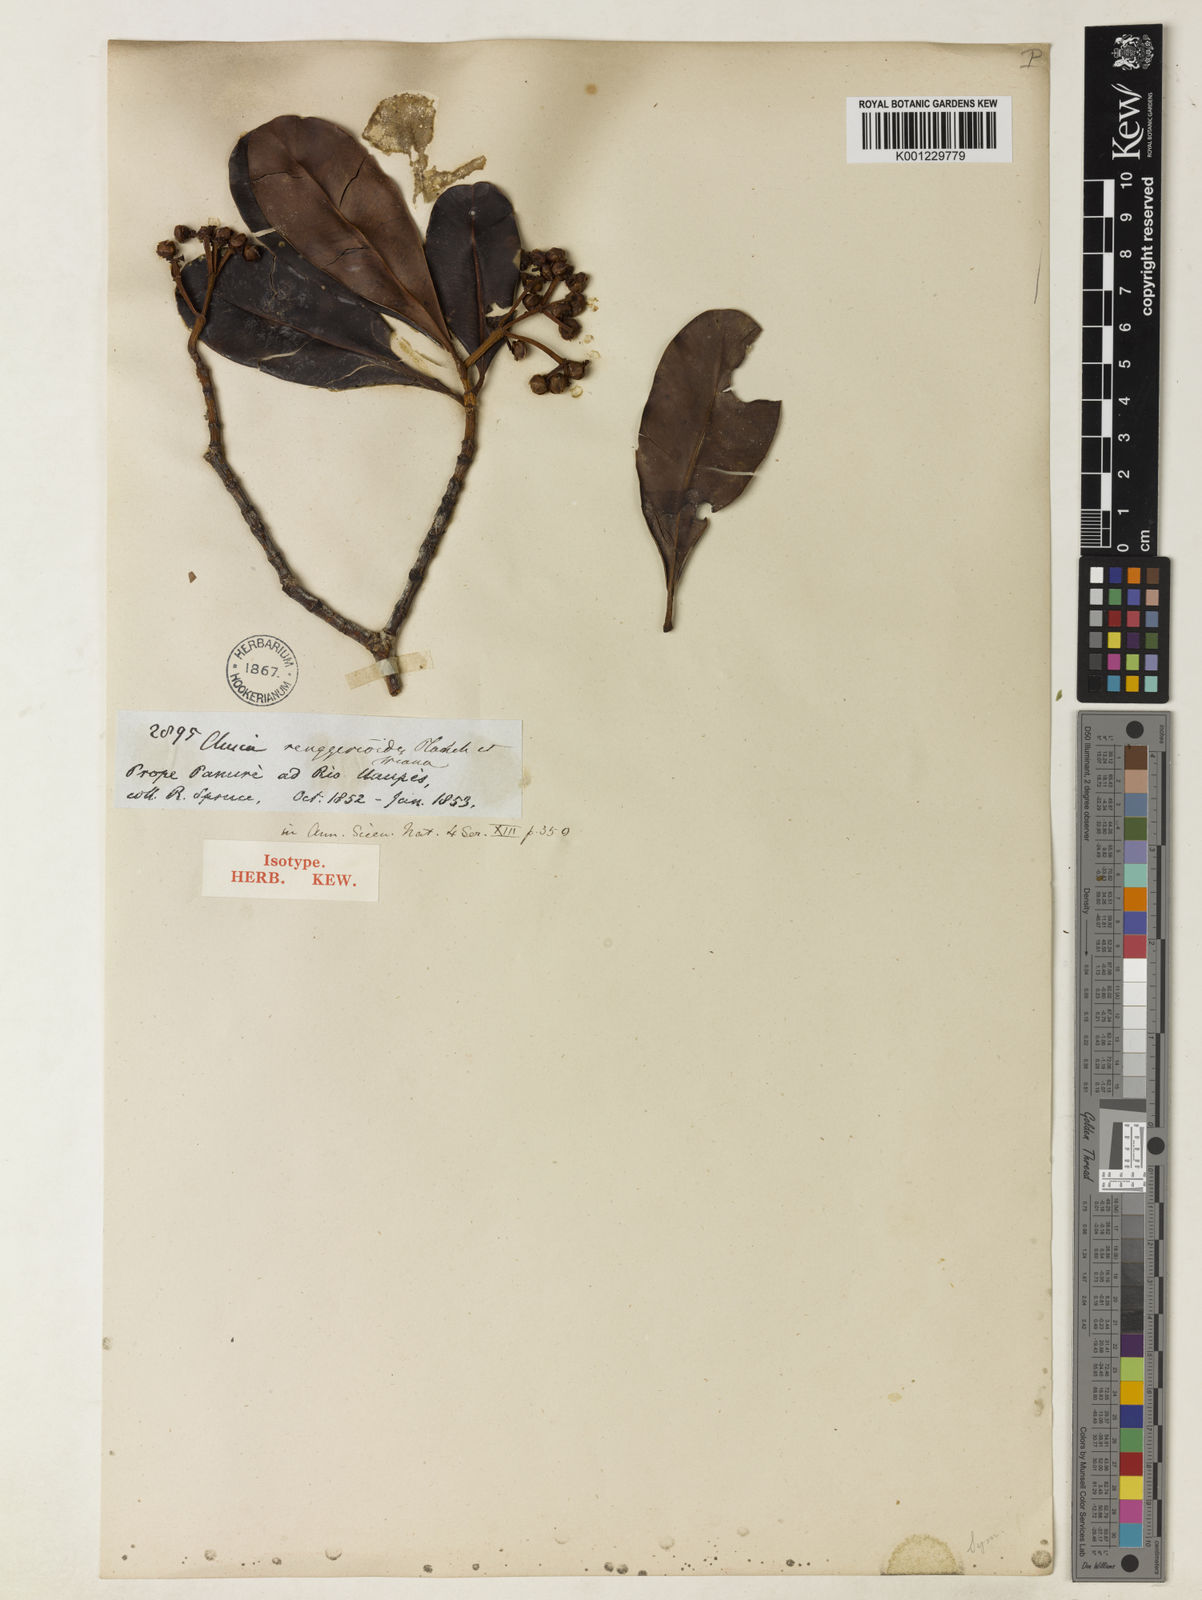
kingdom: Plantae
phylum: Tracheophyta
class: Magnoliopsida
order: Malpighiales
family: Clusiaceae
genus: Clusia
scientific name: Clusia renggerioides
